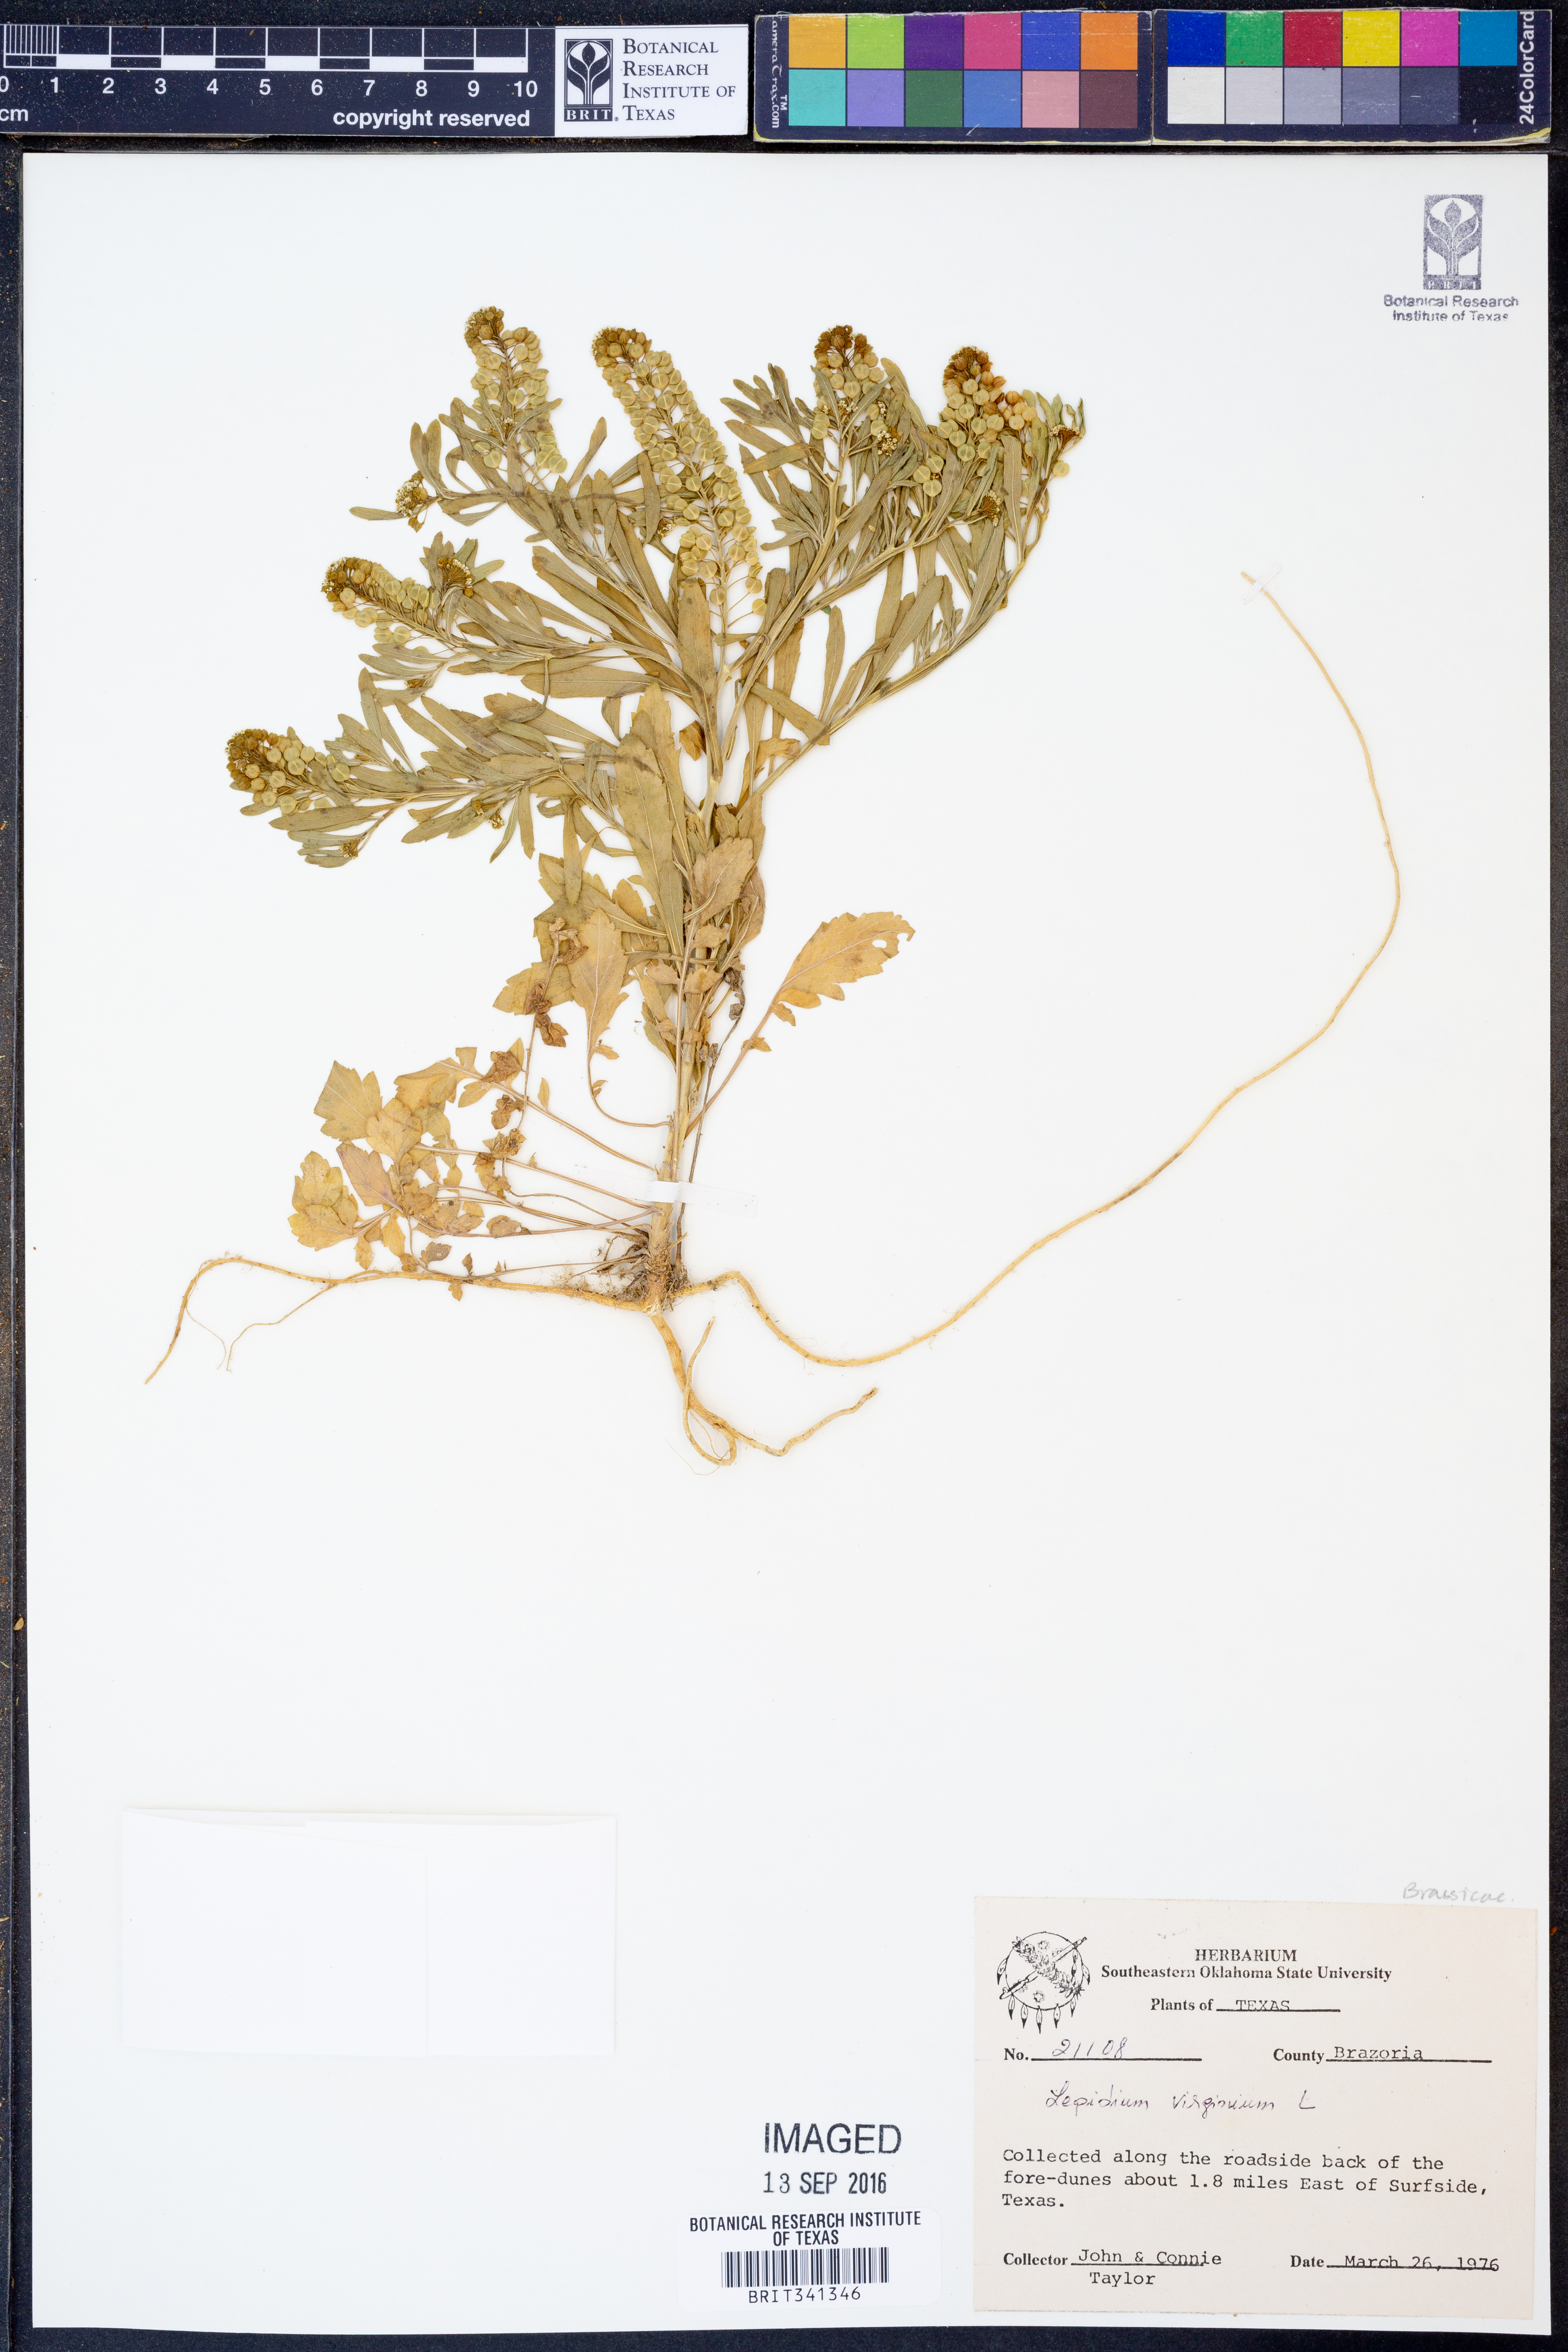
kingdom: Plantae
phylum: Tracheophyta
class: Magnoliopsida
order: Brassicales
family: Brassicaceae
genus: Lepidium
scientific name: Lepidium virginicum
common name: Least pepperwort
